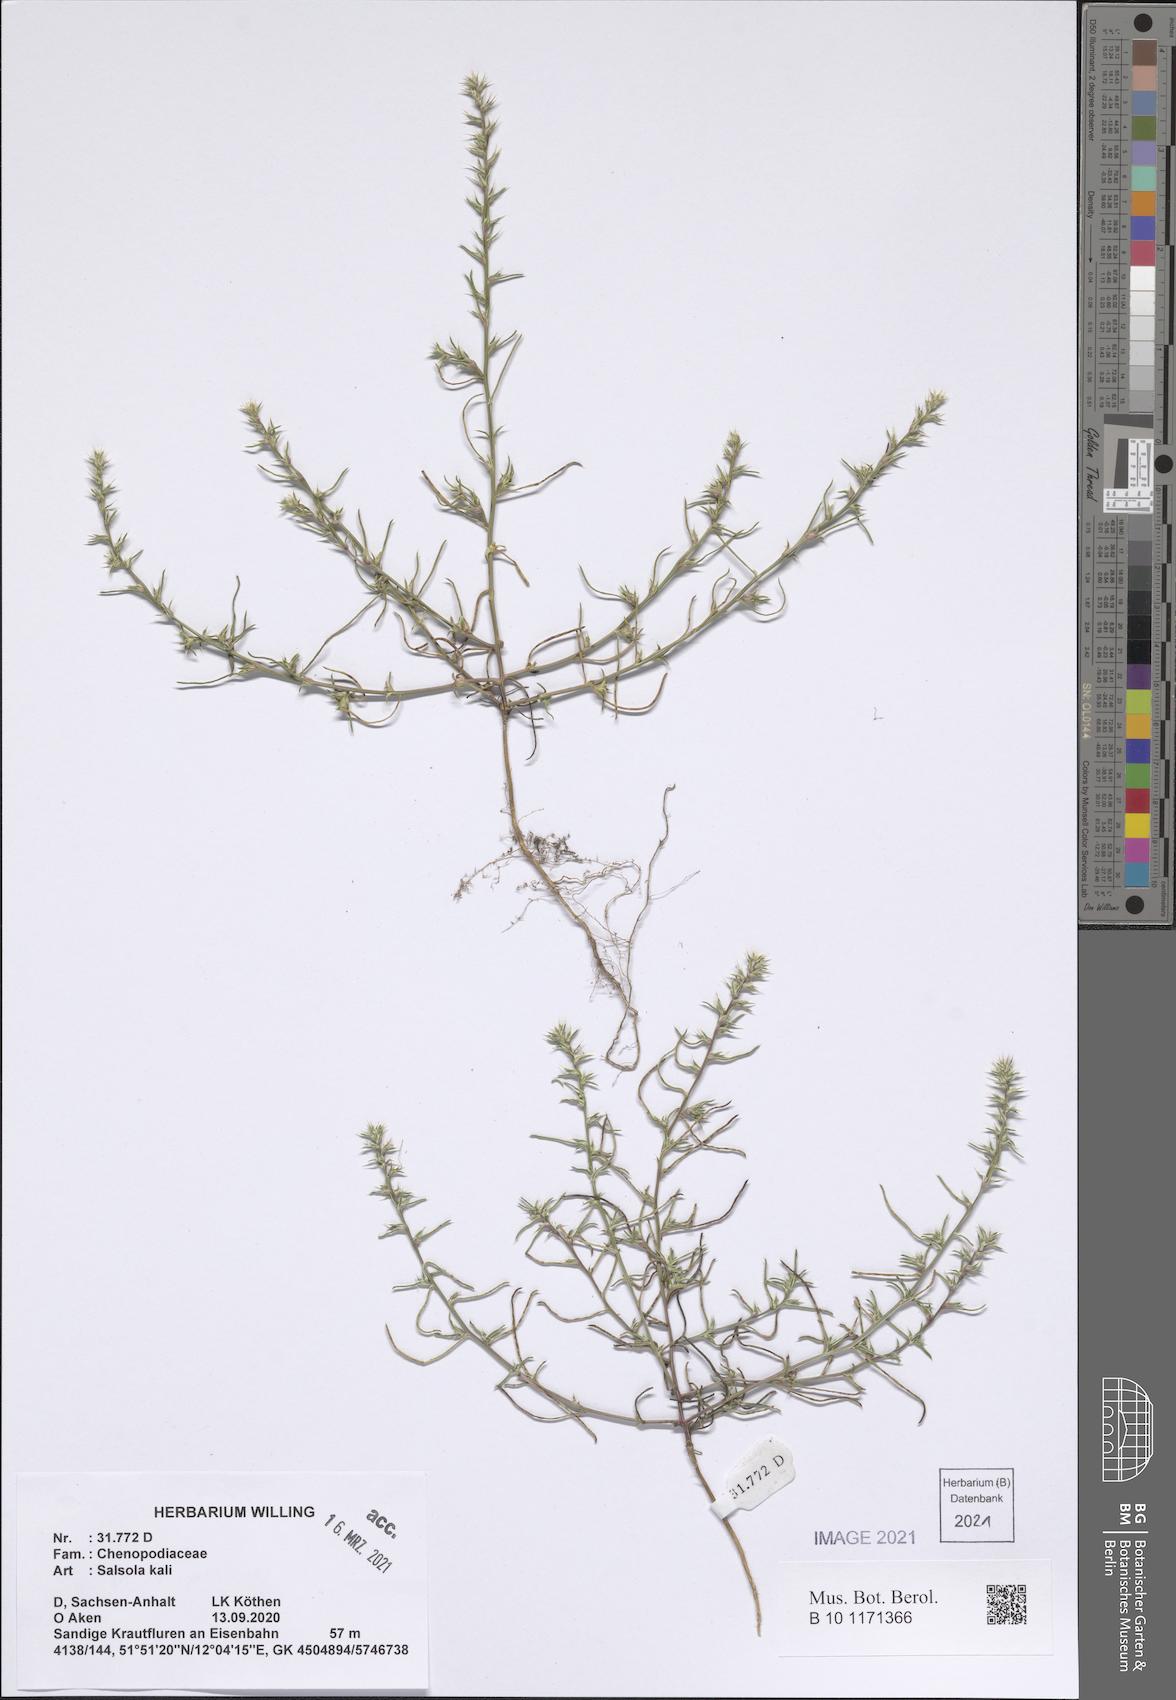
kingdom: Plantae
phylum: Tracheophyta
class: Magnoliopsida
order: Caryophyllales
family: Amaranthaceae
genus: Salsola
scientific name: Salsola kali
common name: Saltwort
